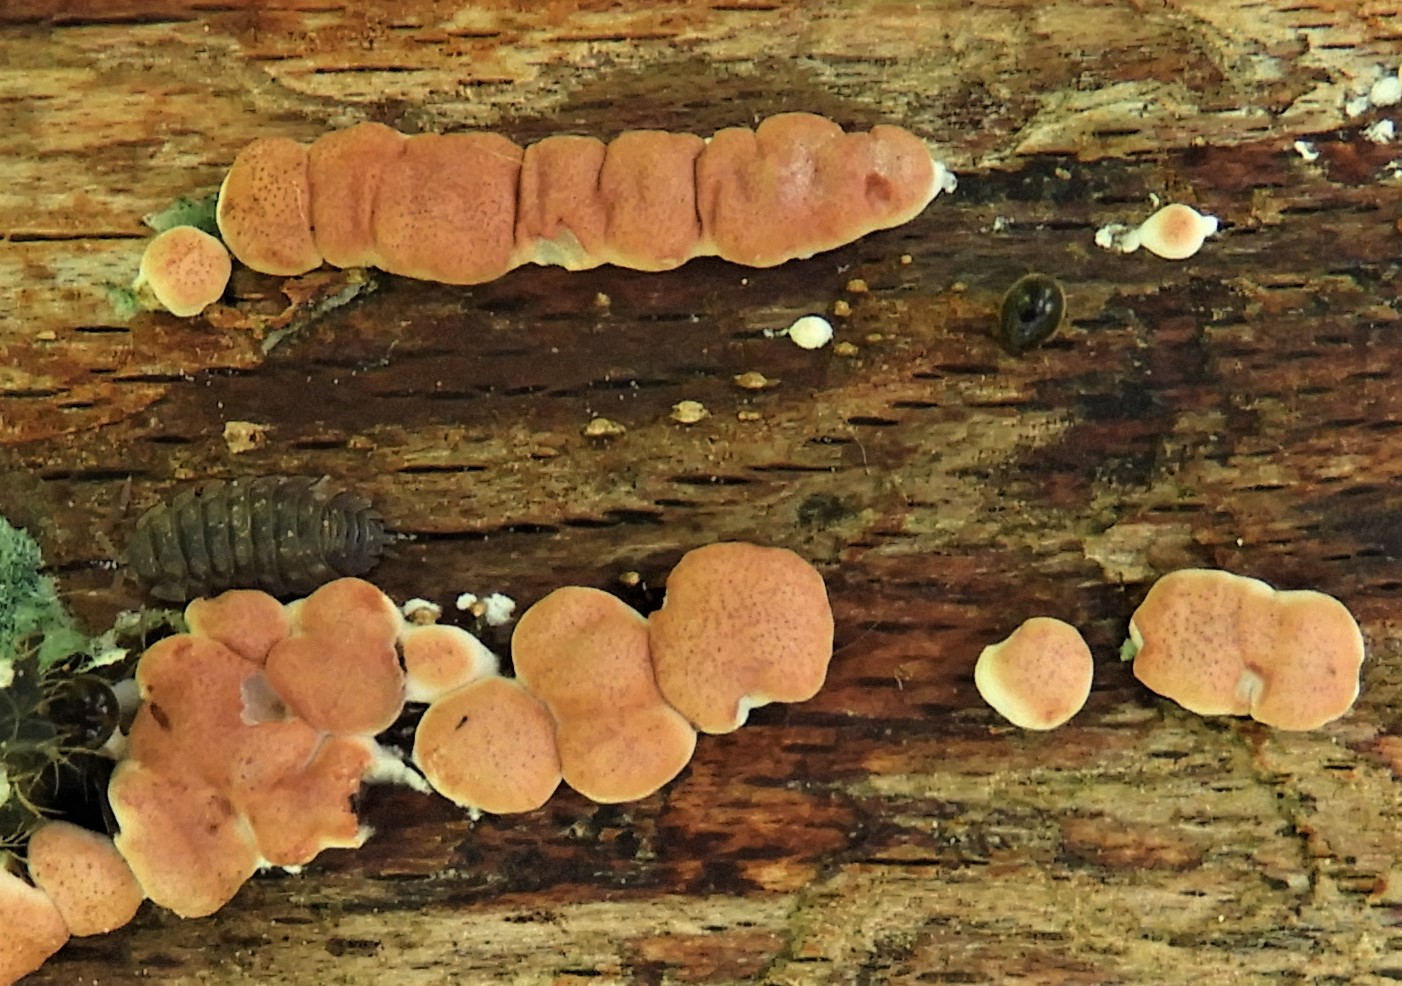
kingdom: Fungi
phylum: Ascomycota
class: Sordariomycetes
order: Hypocreales
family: Hypocreaceae
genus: Trichoderma
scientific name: Trichoderma europaeum
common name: rosabrun kødkerne
